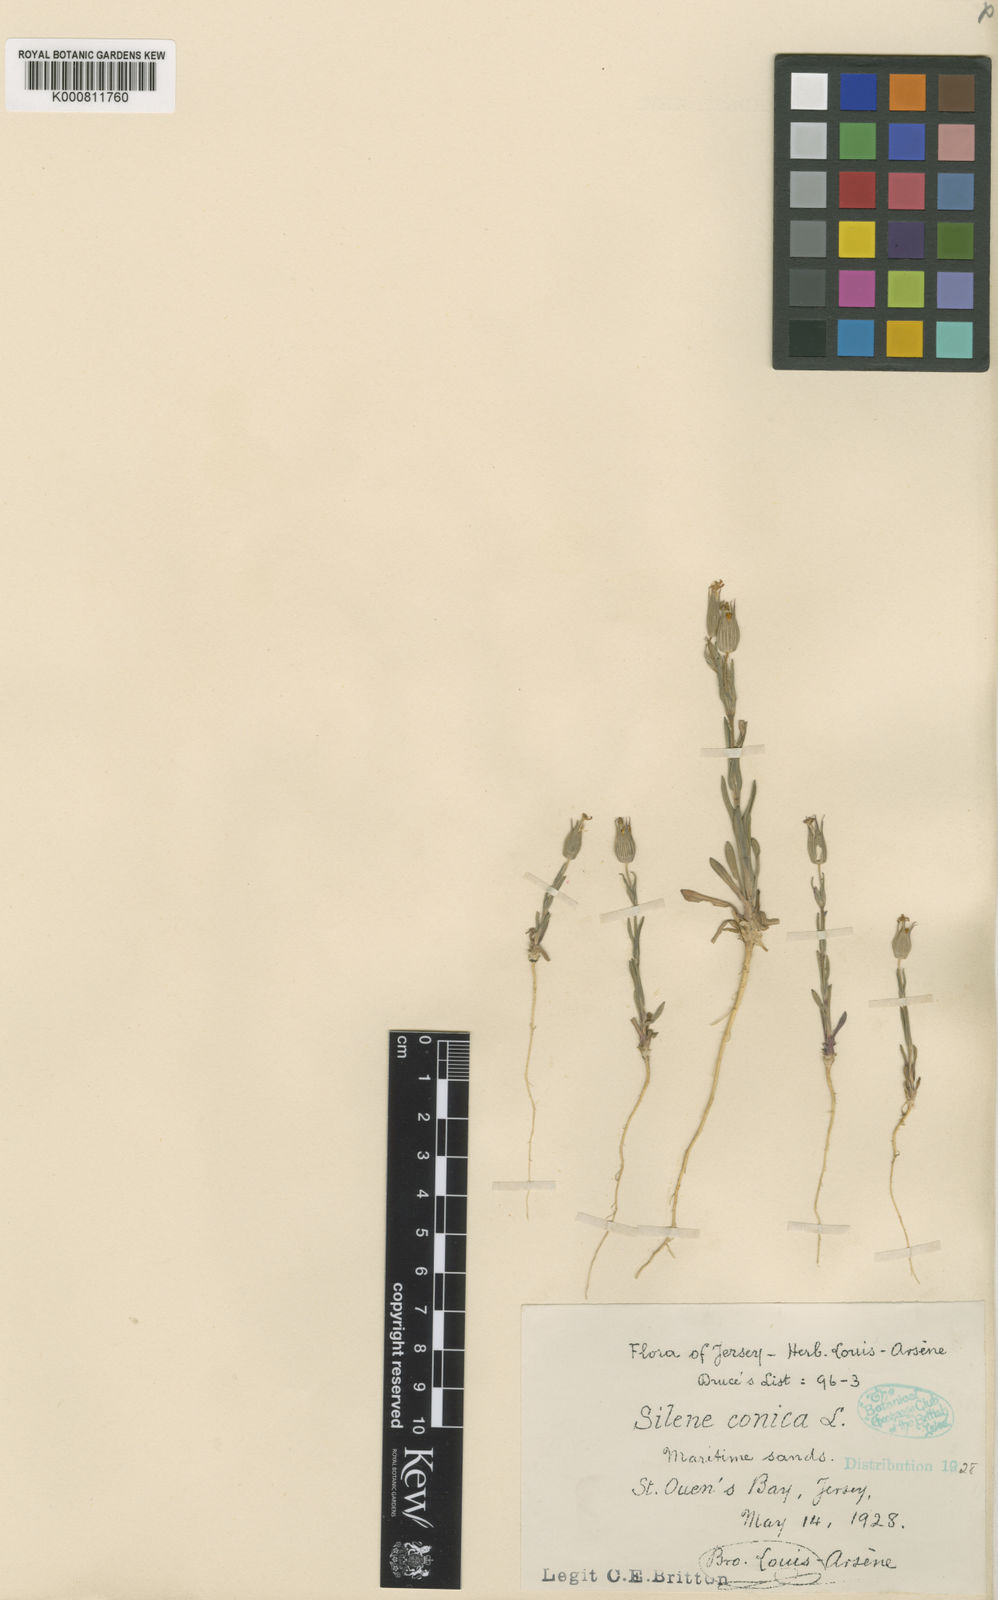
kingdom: Plantae
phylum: Tracheophyta
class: Magnoliopsida
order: Caryophyllales
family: Caryophyllaceae
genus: Silene
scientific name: Silene conica
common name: Sand catchfly
